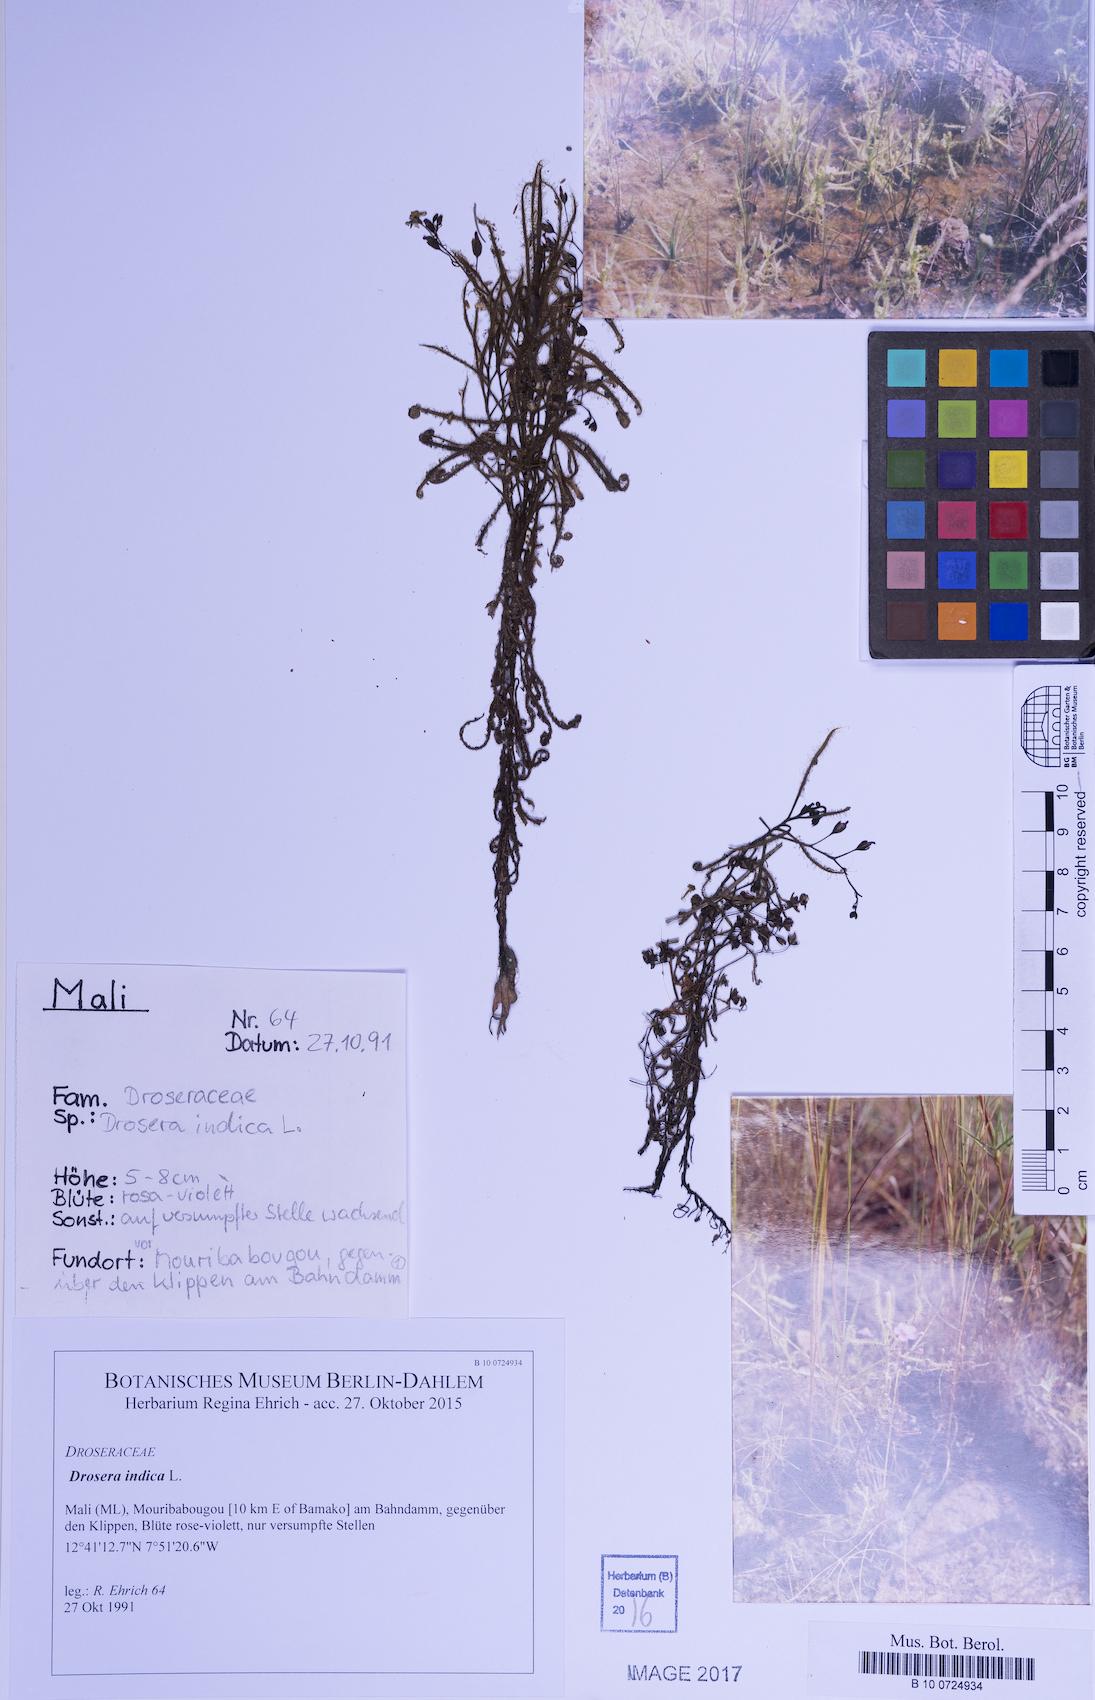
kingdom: Plantae
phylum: Tracheophyta
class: Magnoliopsida
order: Caryophyllales
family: Droseraceae
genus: Drosera
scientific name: Drosera indica
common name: Indian sundew
